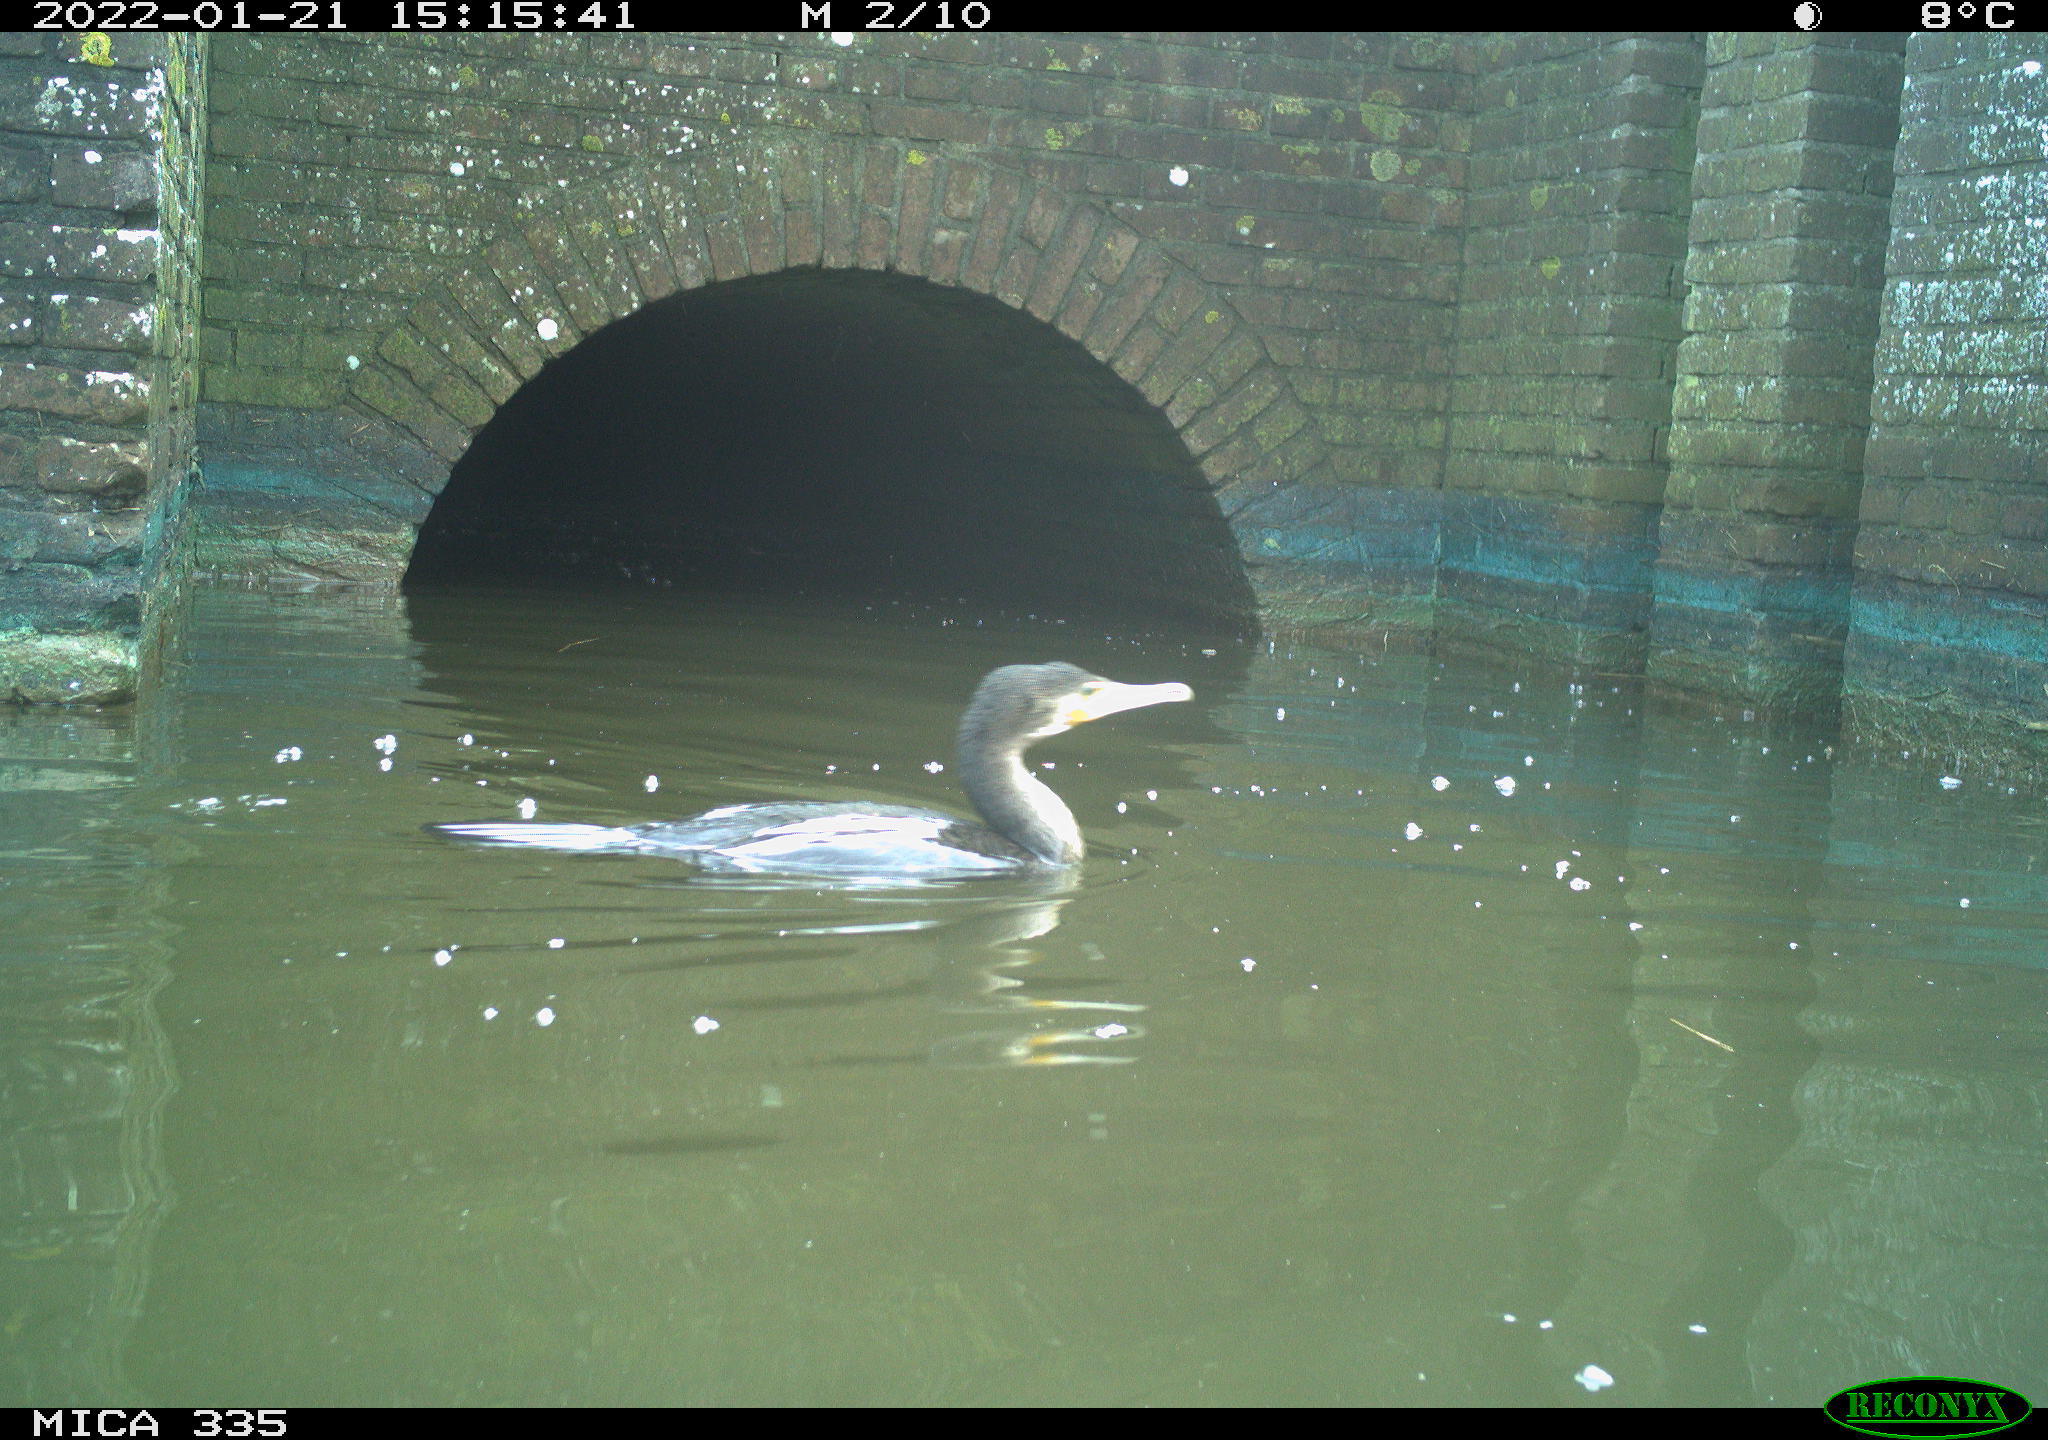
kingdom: Animalia
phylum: Chordata
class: Aves
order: Suliformes
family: Phalacrocoracidae
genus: Phalacrocorax
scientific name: Phalacrocorax carbo
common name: Great cormorant
